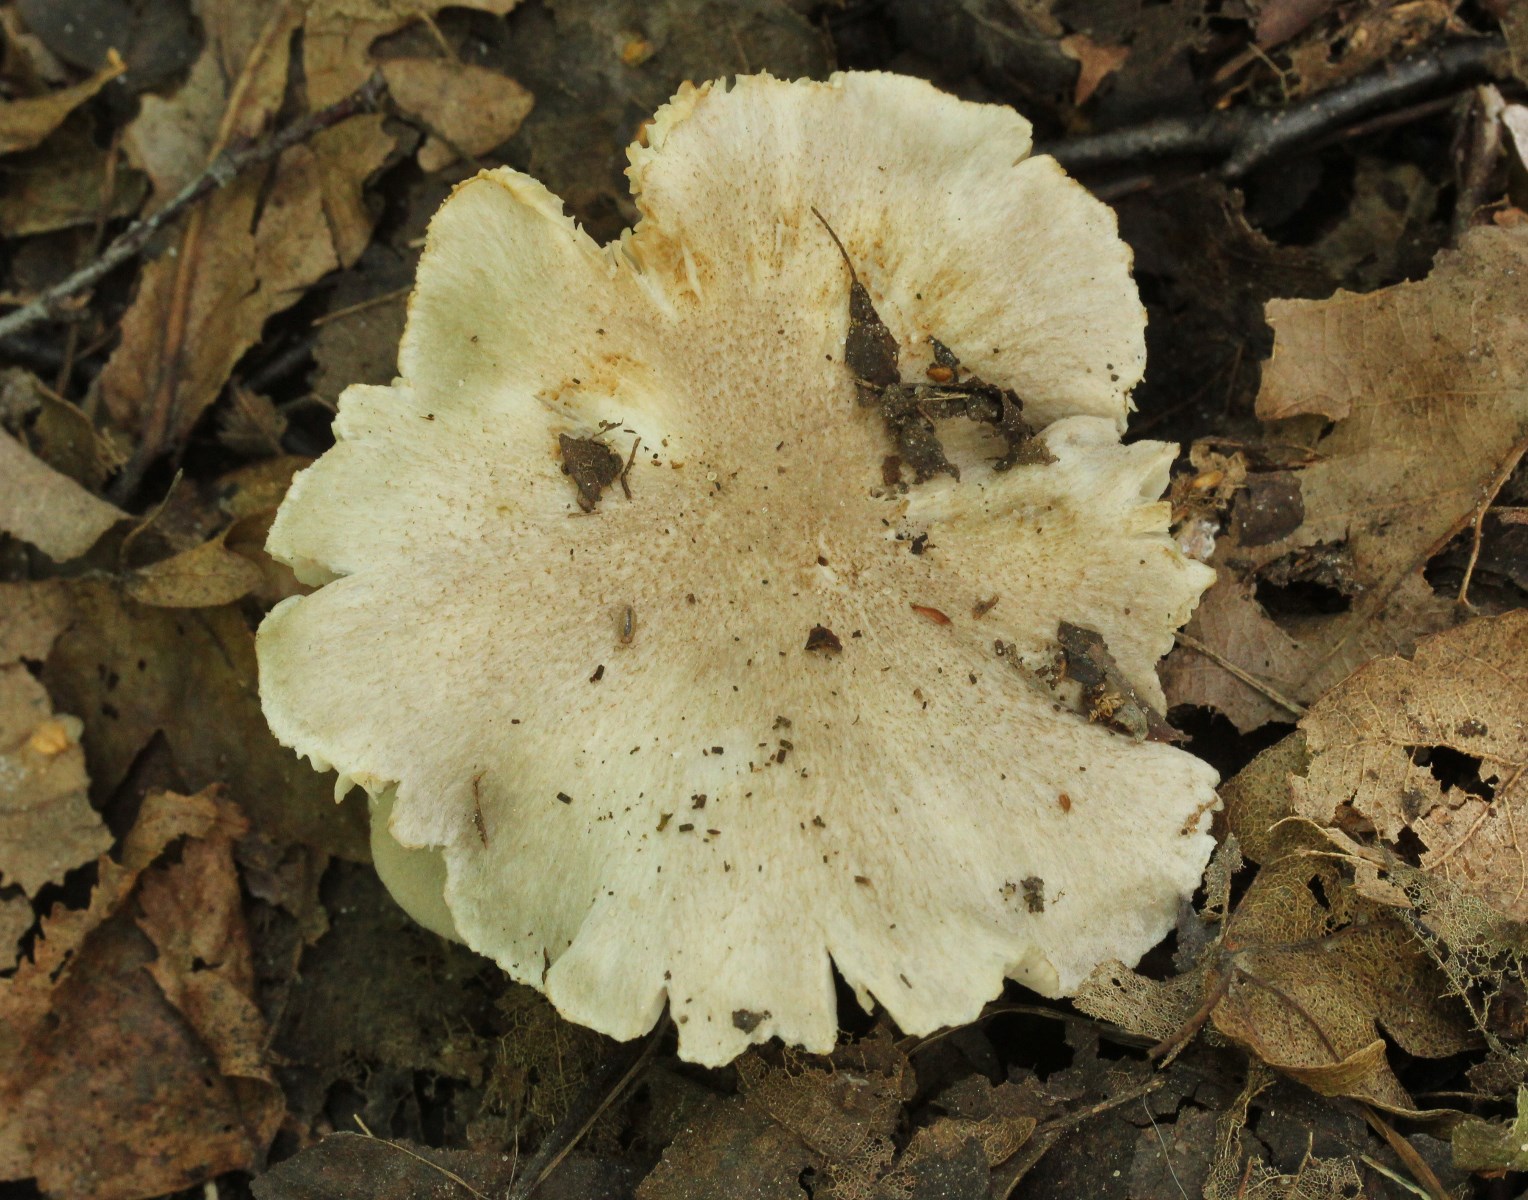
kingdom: Fungi
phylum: Basidiomycota
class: Agaricomycetes
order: Agaricales
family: Tricholomataceae
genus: Tricholoma
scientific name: Tricholoma scalpturatum
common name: gulplettet ridderhat
